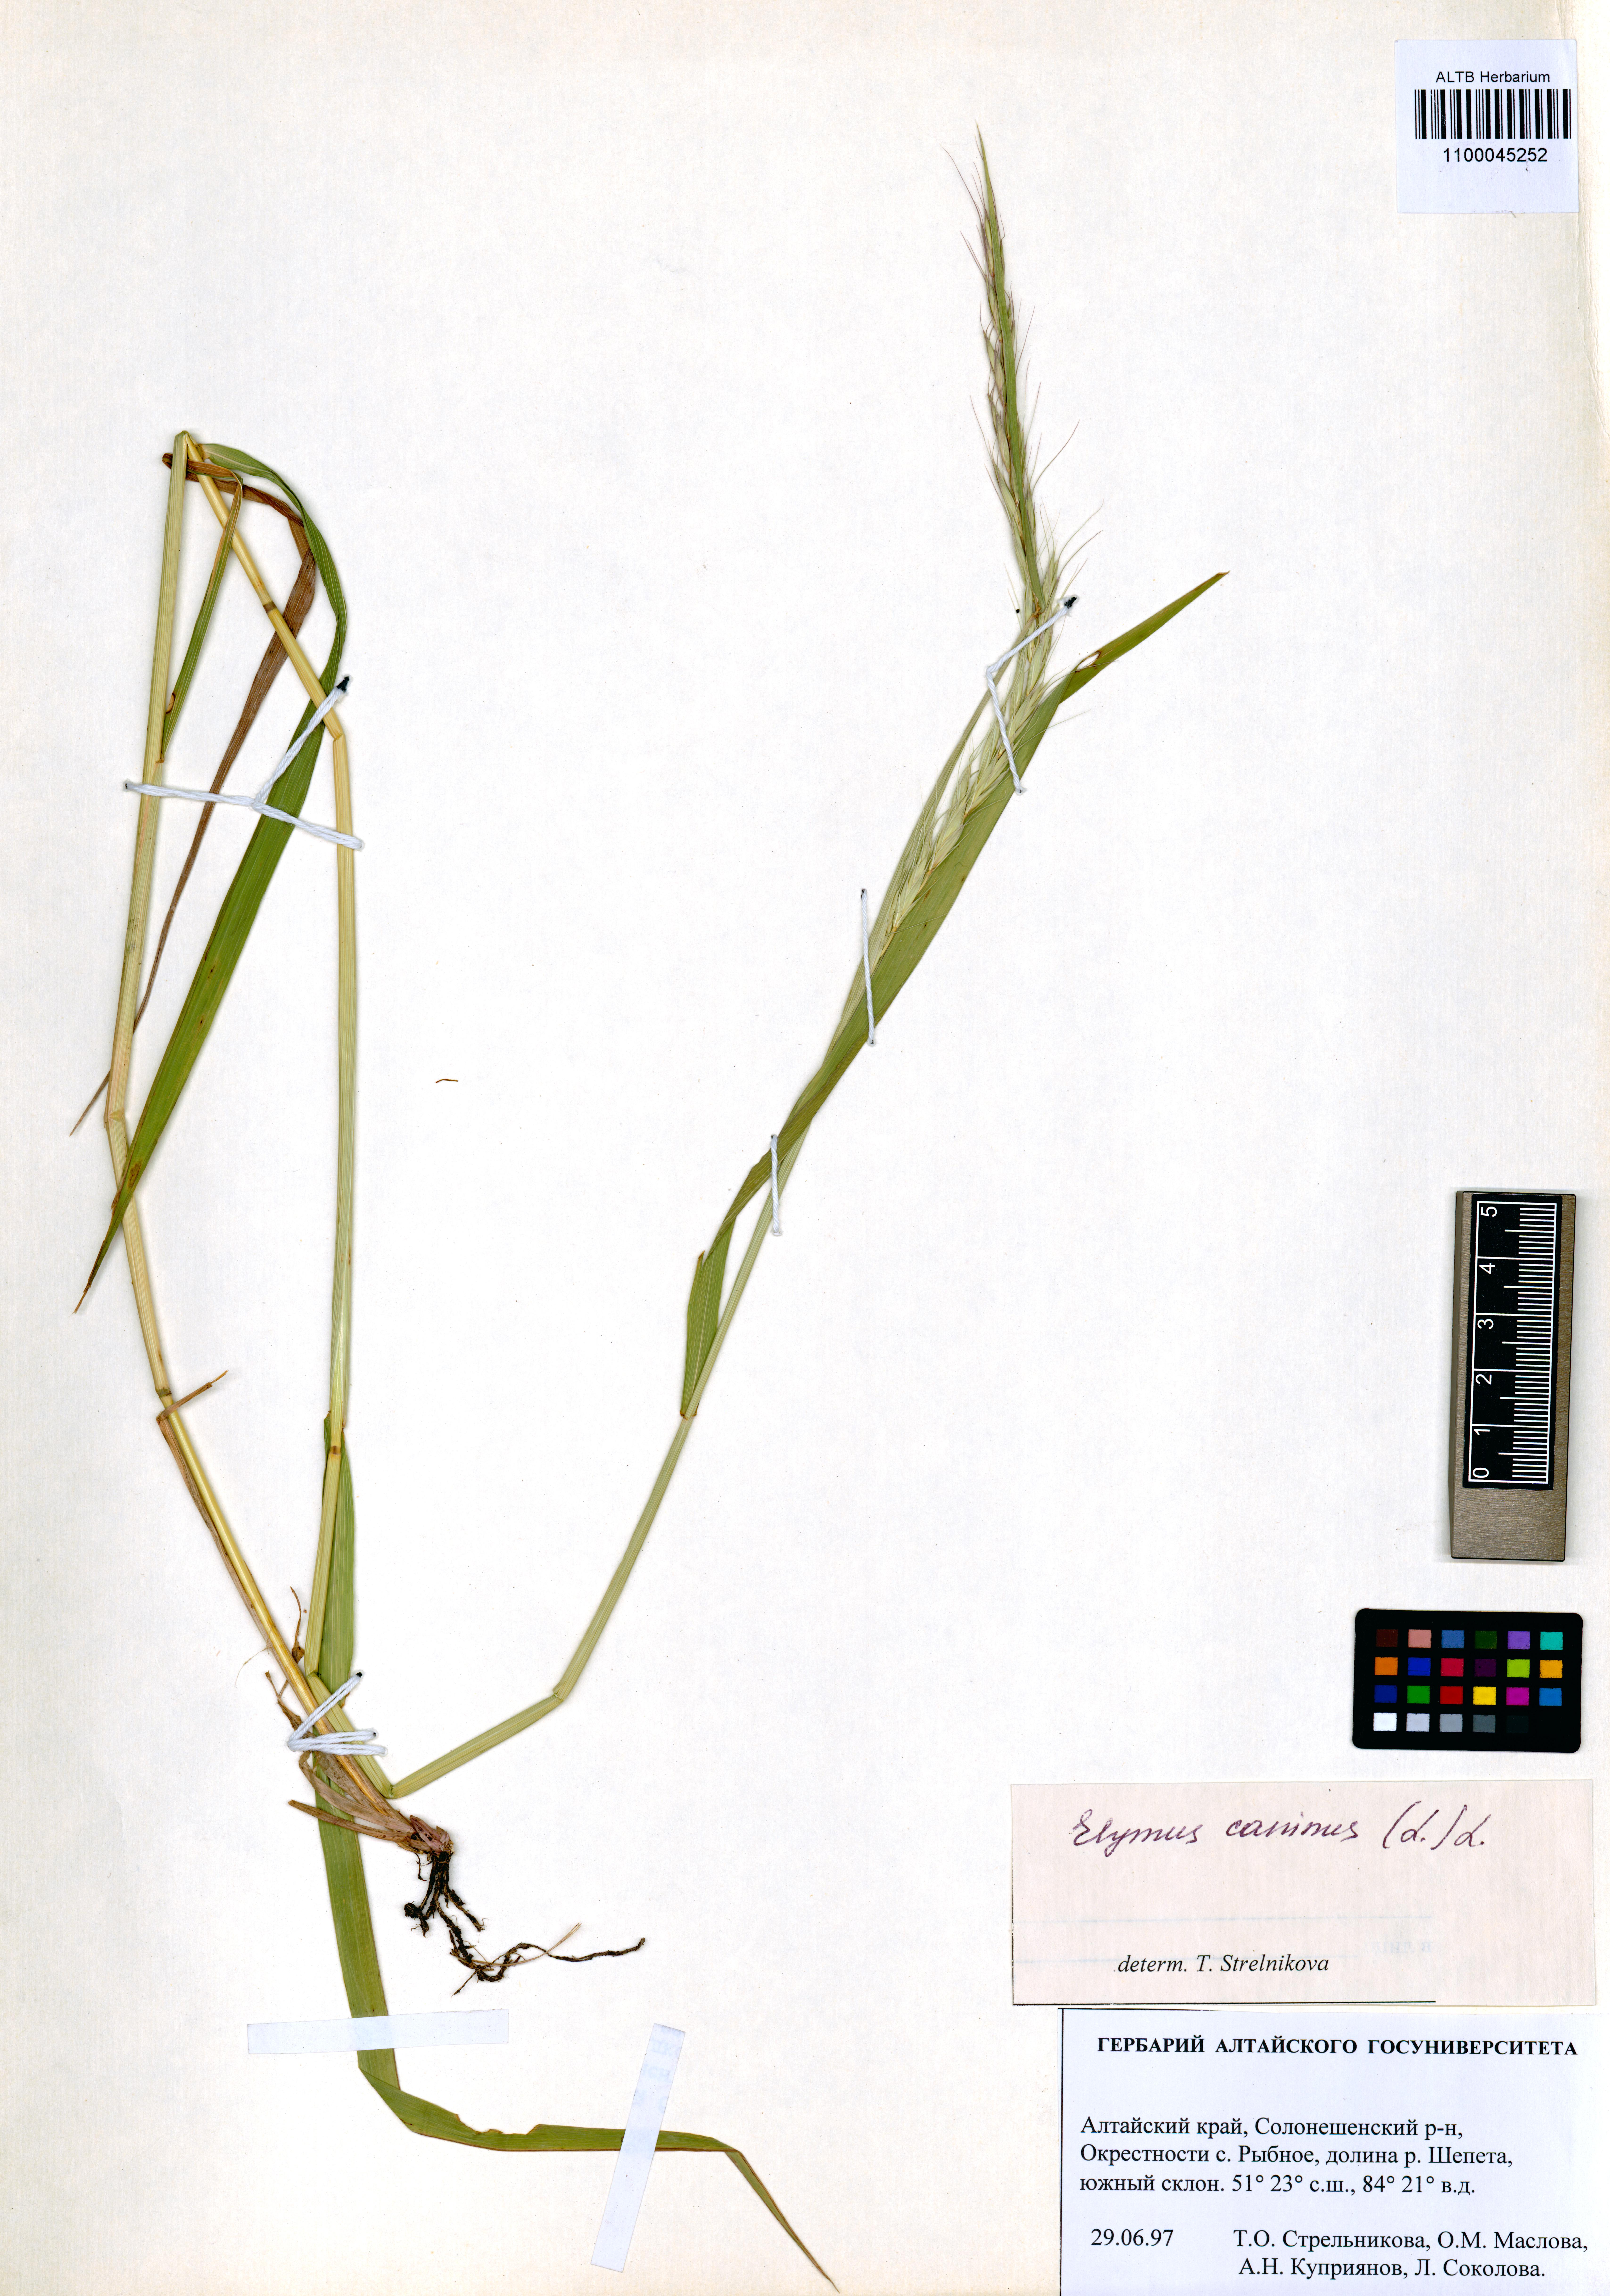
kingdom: Plantae
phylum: Tracheophyta
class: Liliopsida
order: Poales
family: Poaceae
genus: Elymus
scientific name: Elymus caninus
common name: Bearded couch
